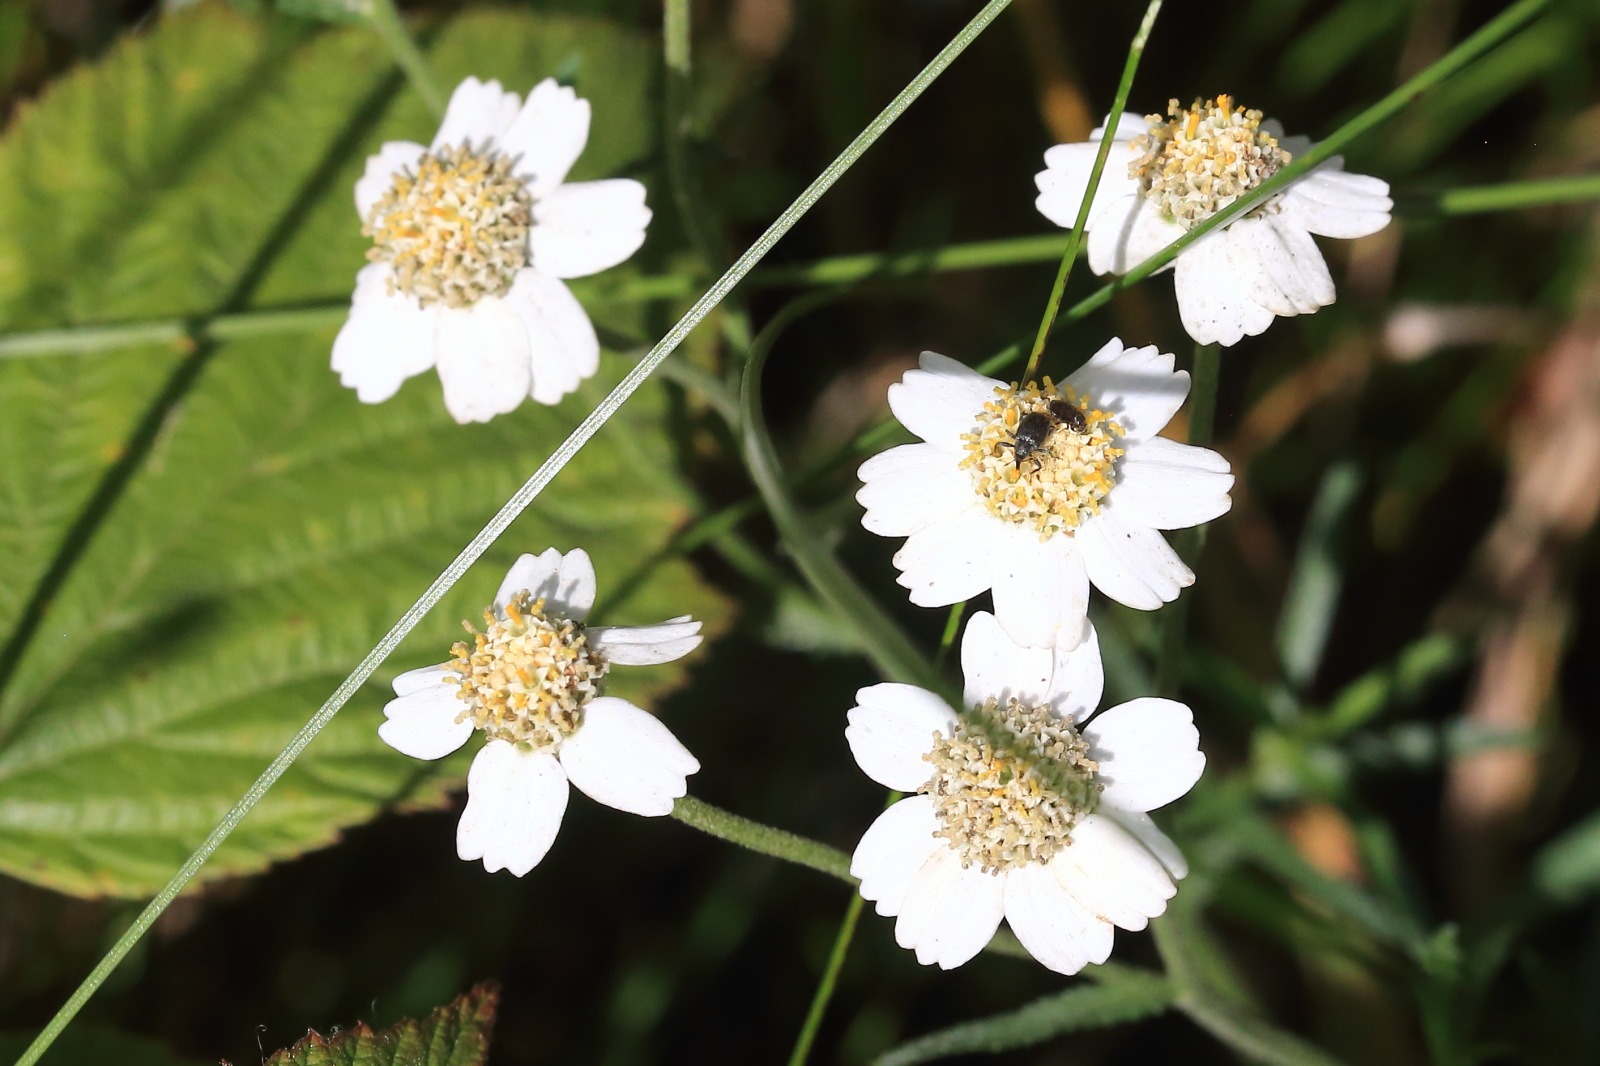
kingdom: Plantae
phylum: Tracheophyta
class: Magnoliopsida
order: Asterales
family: Asteraceae
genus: Achillea
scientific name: Achillea ptarmica
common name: Nyse-røllike
